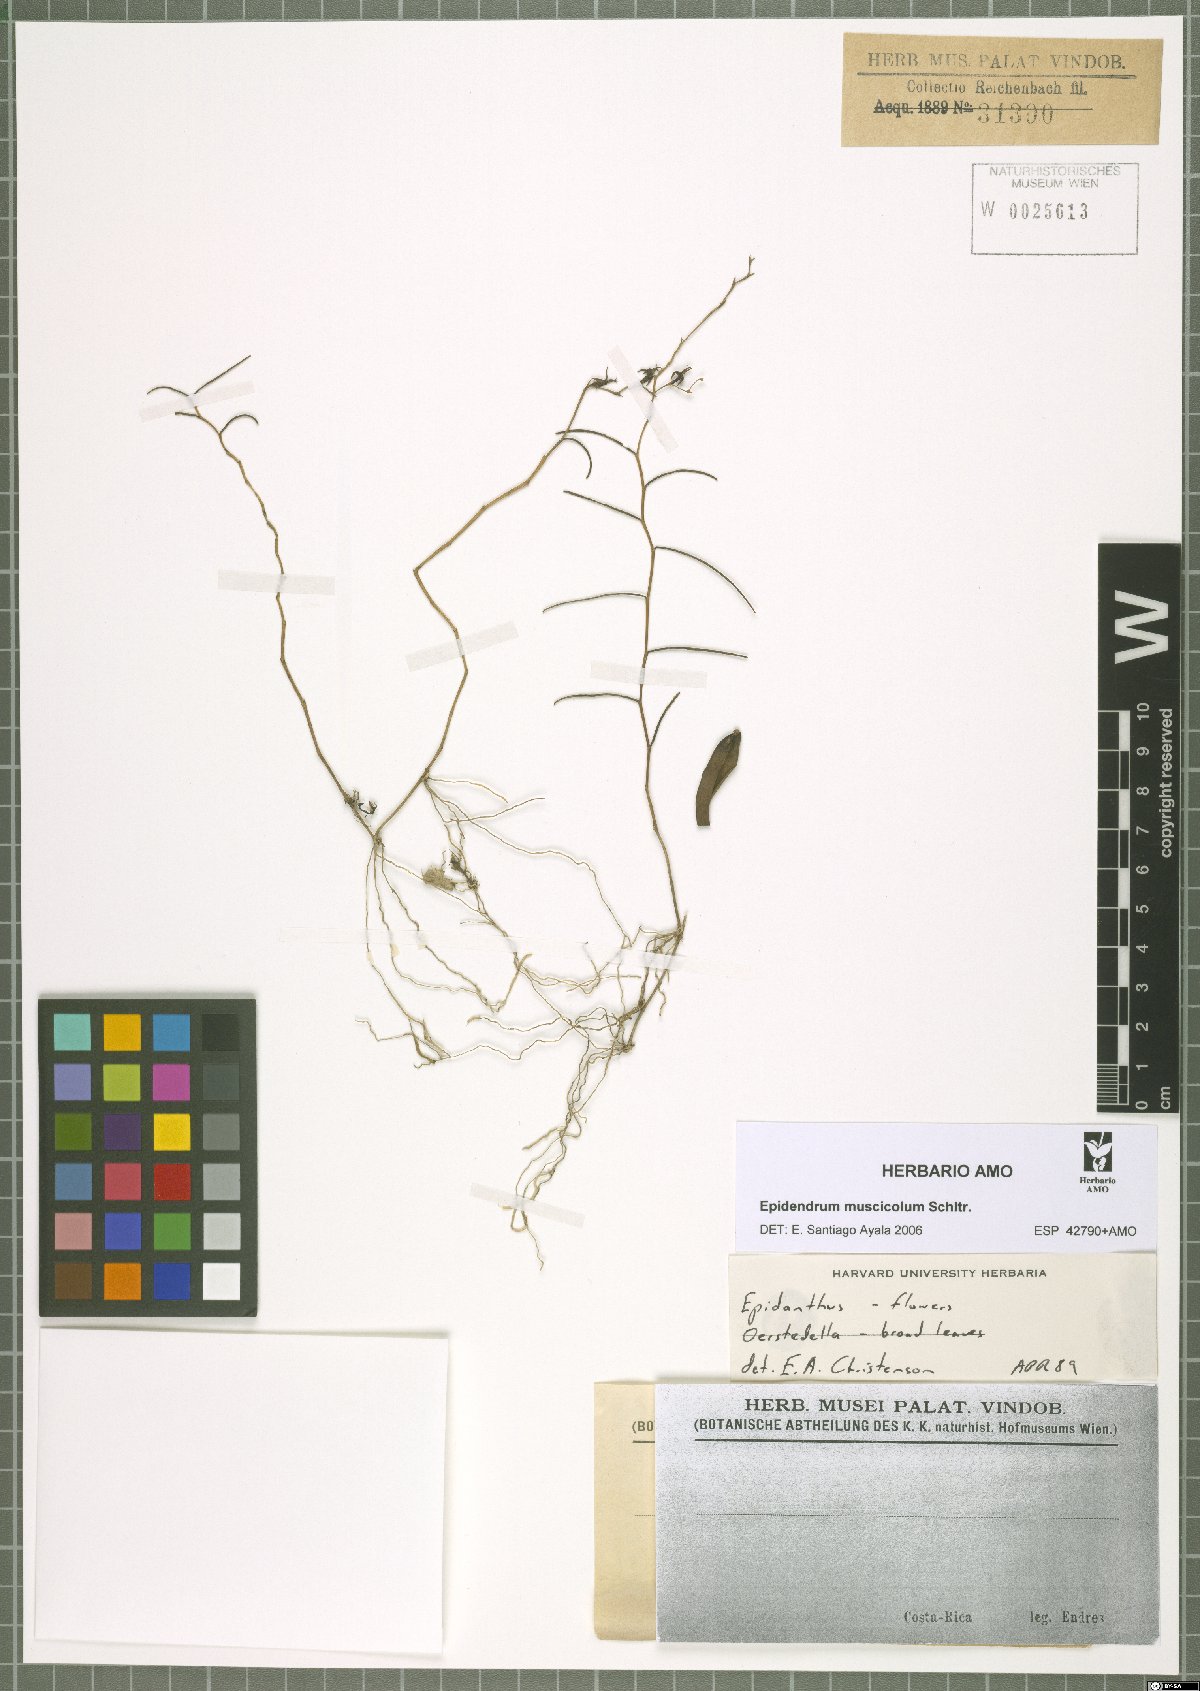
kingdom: Plantae
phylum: Tracheophyta
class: Liliopsida
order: Asparagales
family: Orchidaceae
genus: Epidendrum
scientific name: Epidendrum muscicola
